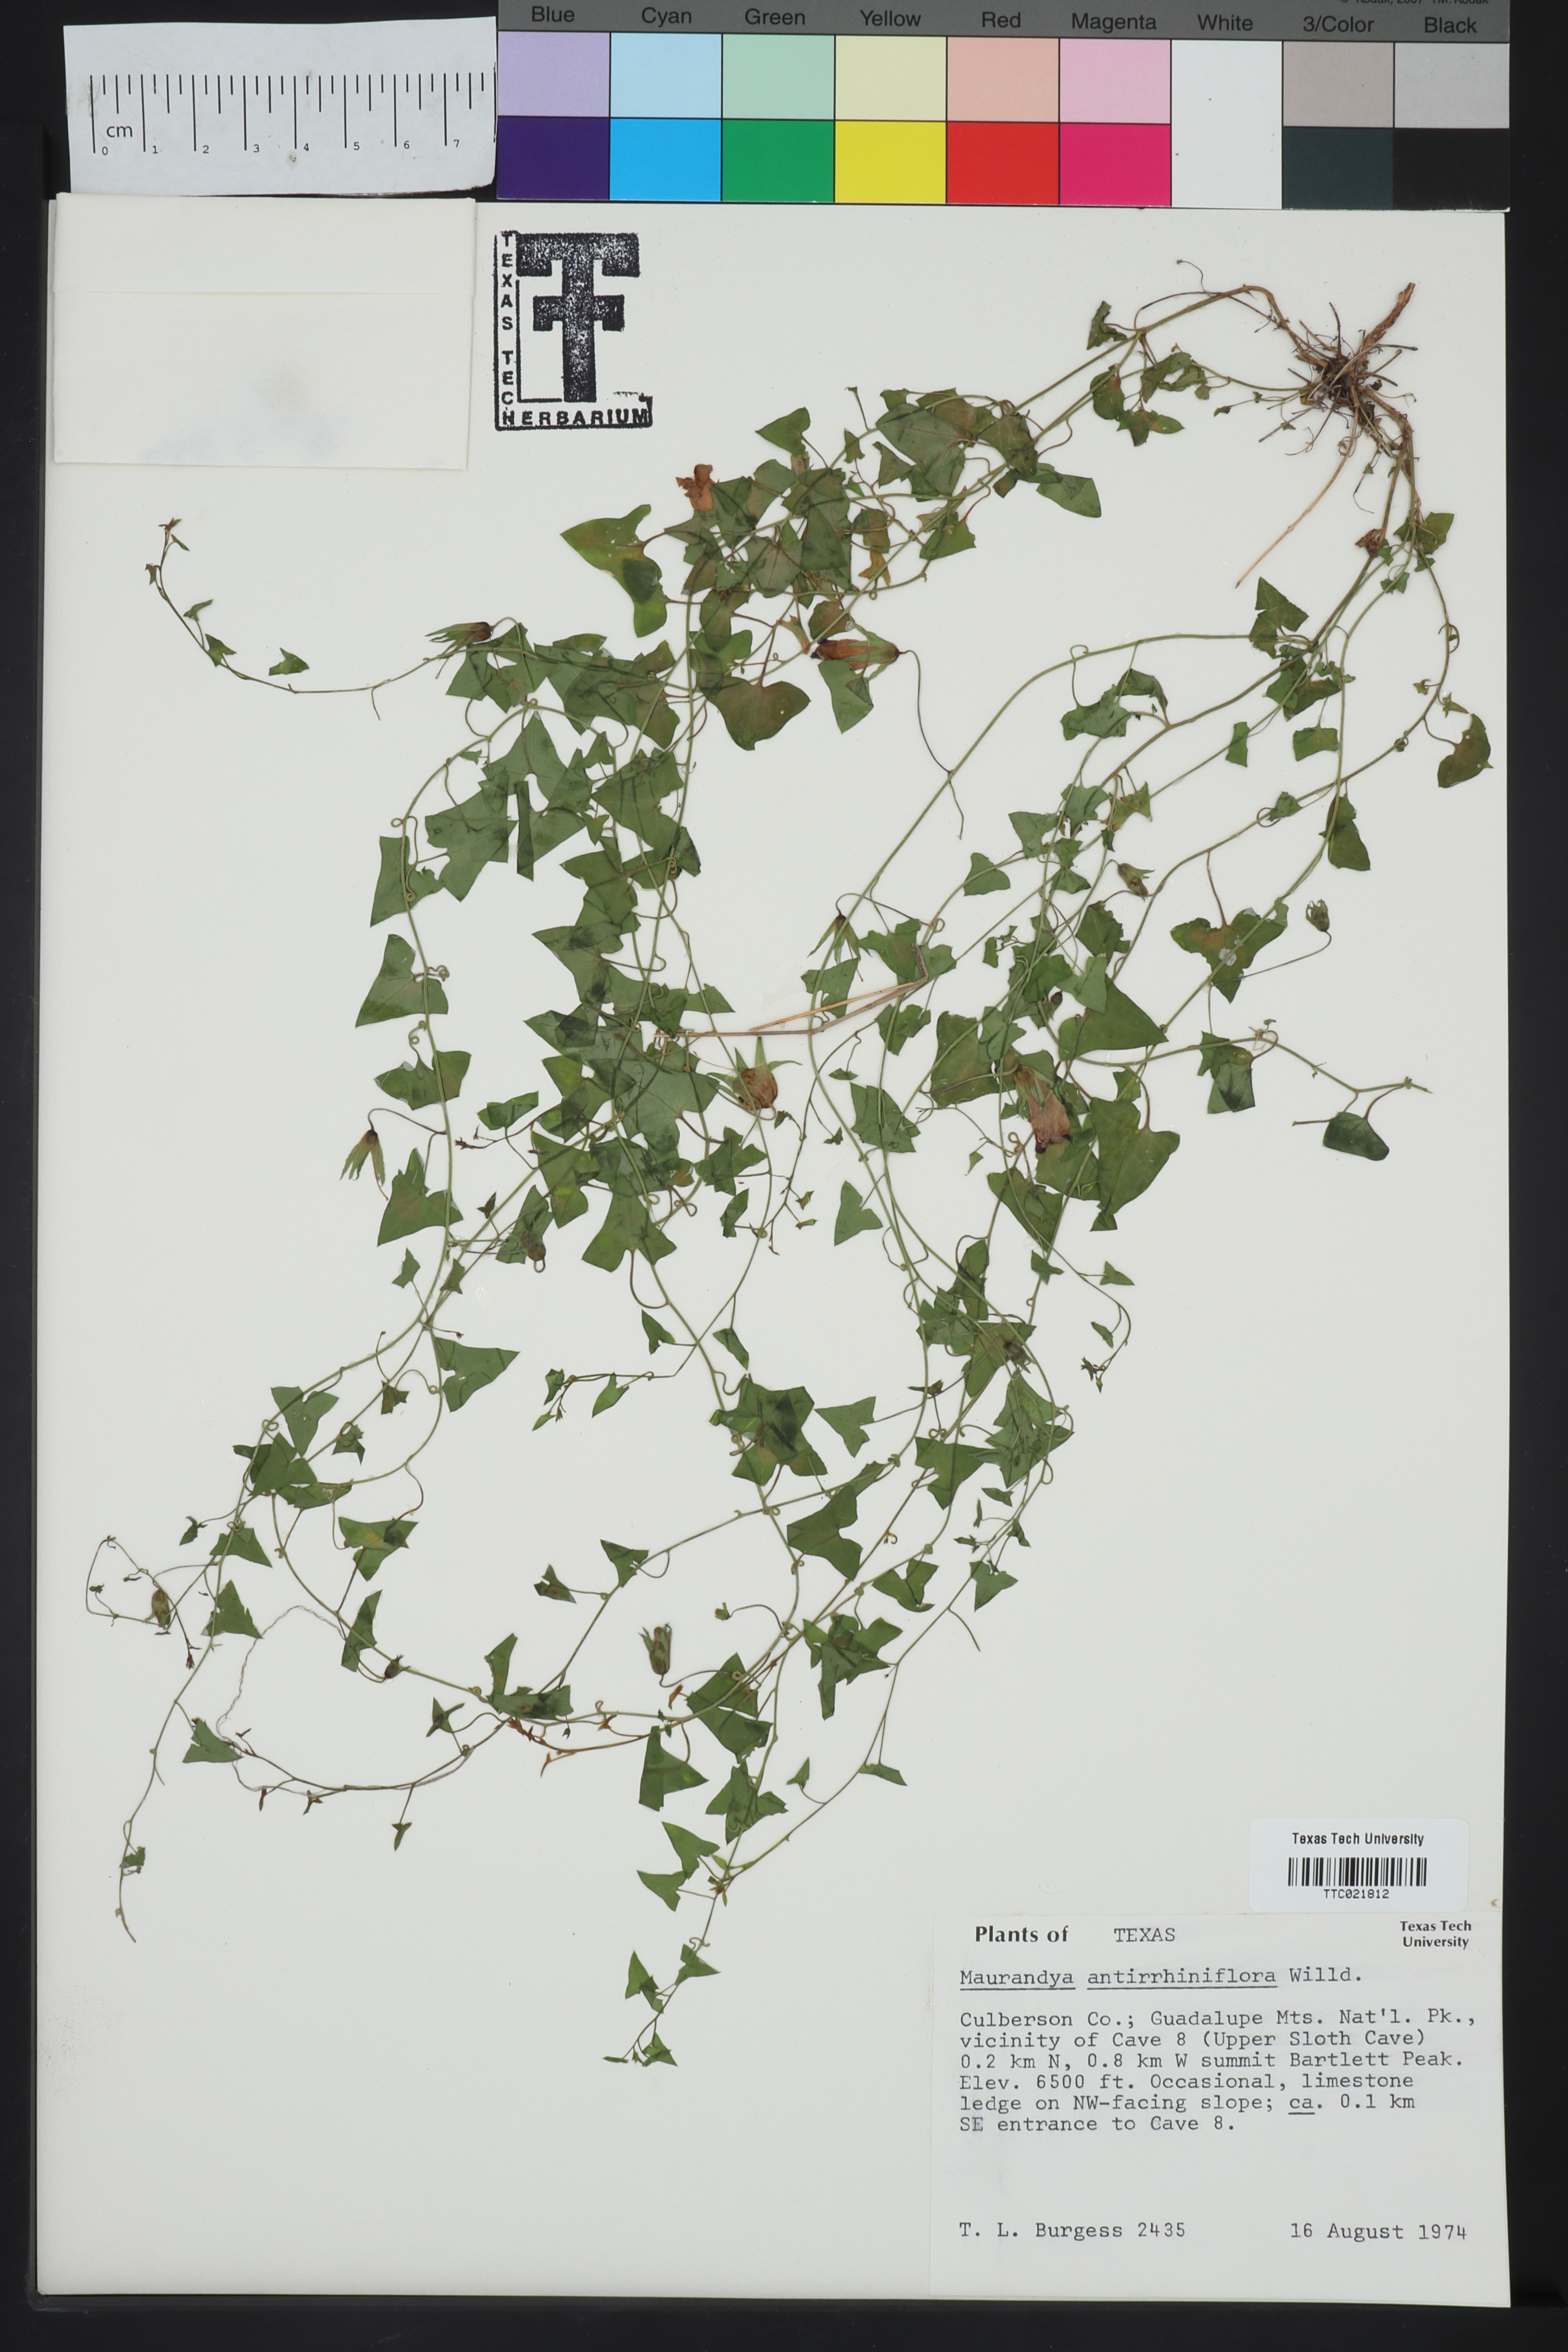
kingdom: Plantae
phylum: Tracheophyta
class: Magnoliopsida
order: Lamiales
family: Plantaginaceae
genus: Maurandella
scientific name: Maurandella antirrhiniflora
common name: Violet twining-snapdragon
